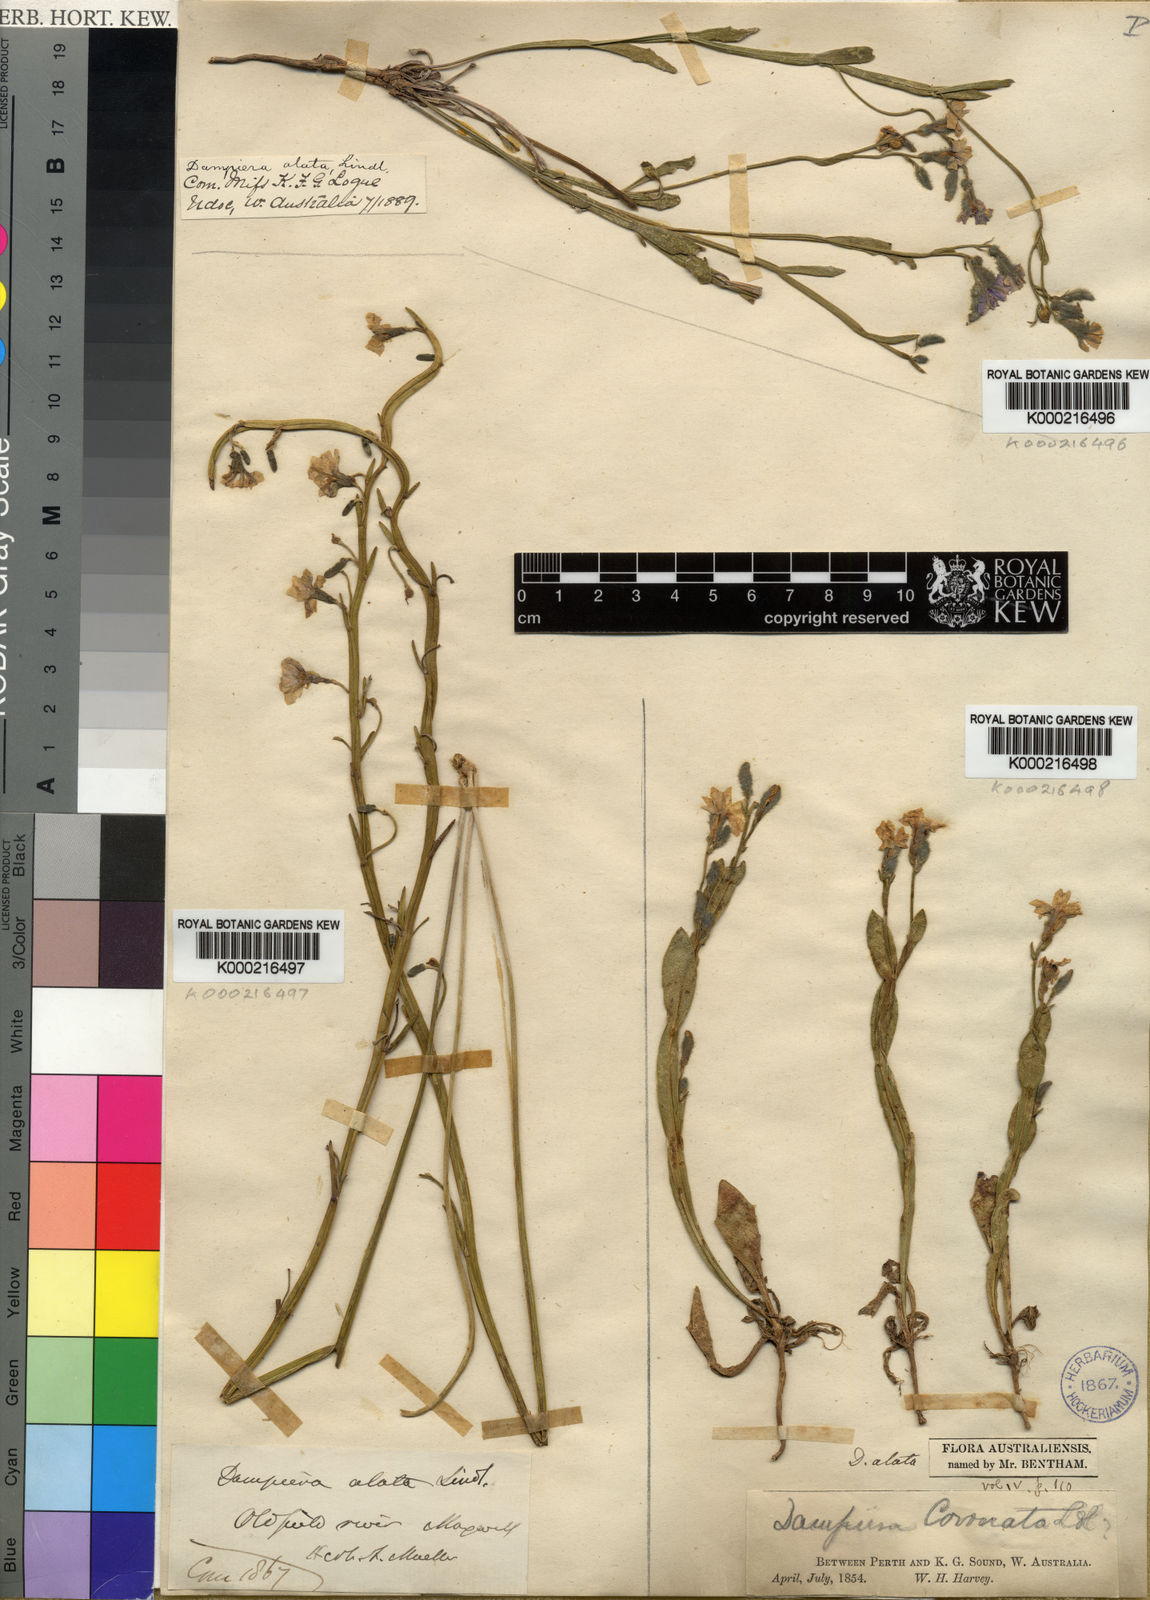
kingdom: Plantae
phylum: Tracheophyta
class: Magnoliopsida
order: Asterales
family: Goodeniaceae
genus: Dampiera
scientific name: Dampiera alata
